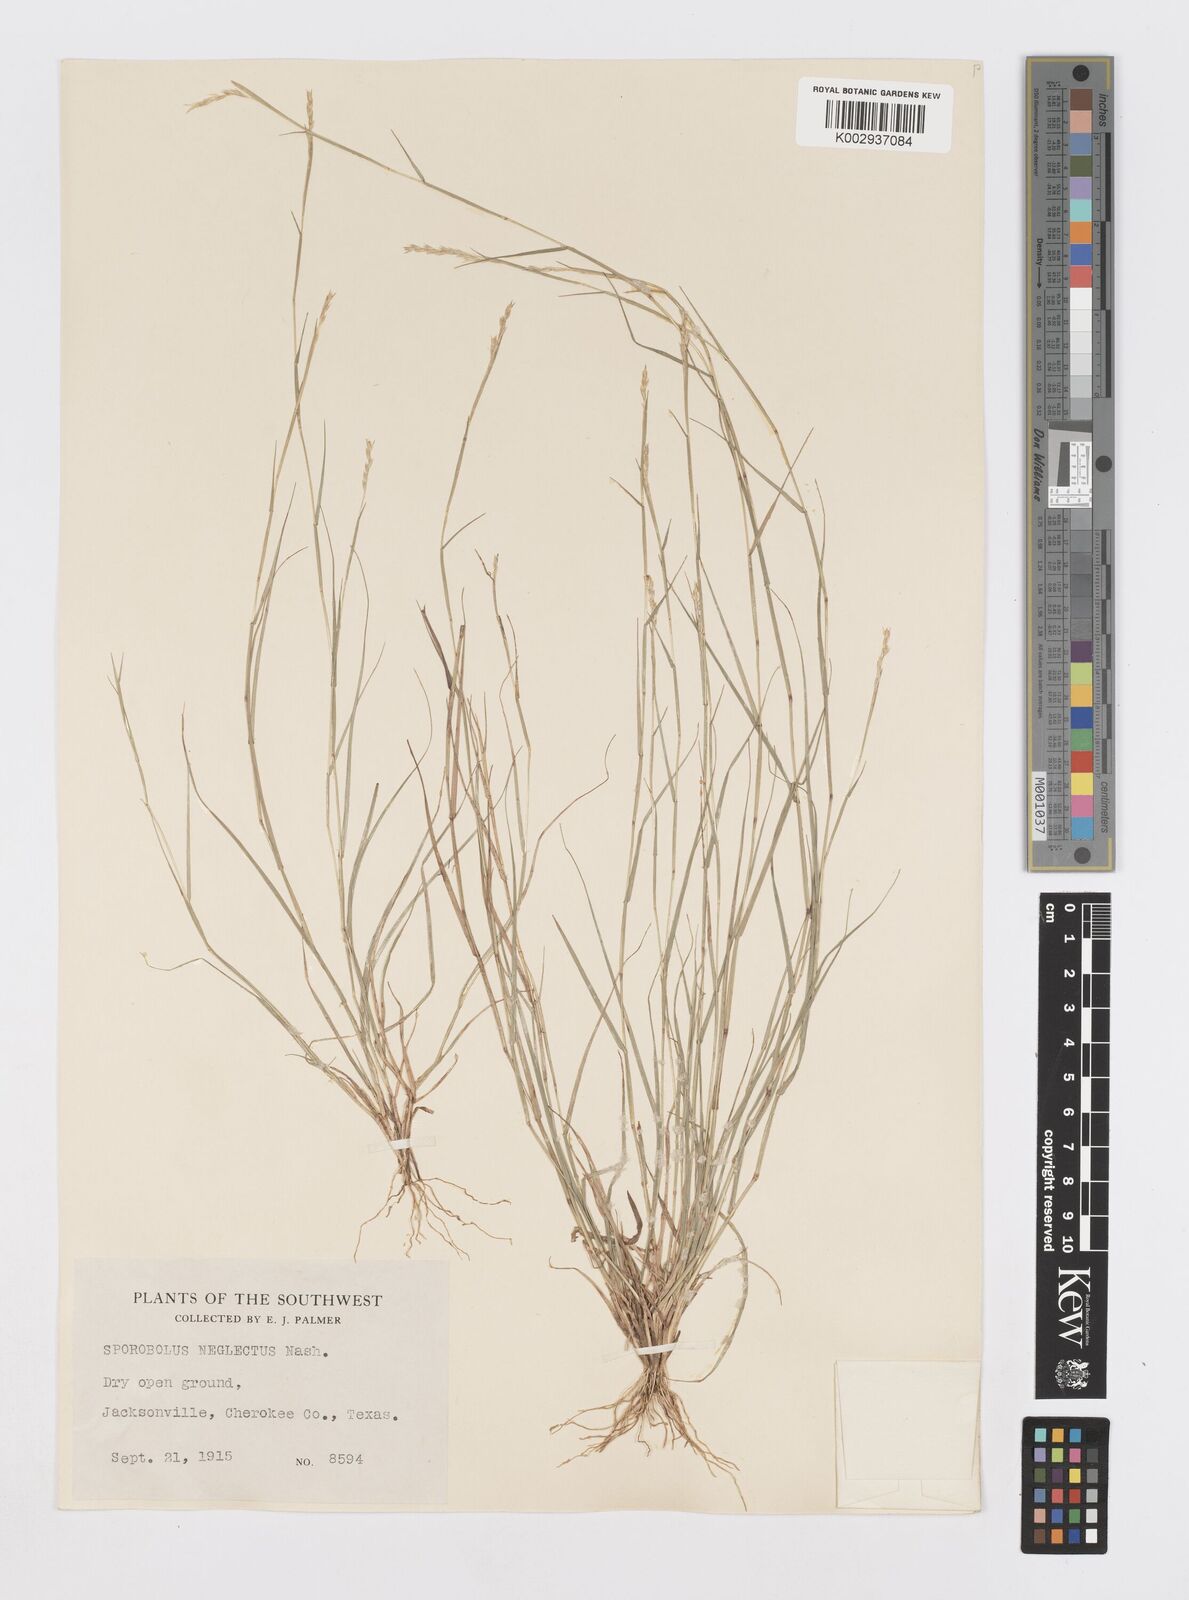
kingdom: Plantae
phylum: Tracheophyta
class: Liliopsida
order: Poales
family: Poaceae
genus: Sporobolus
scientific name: Sporobolus vaginiflorus
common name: Poverty dropseed
